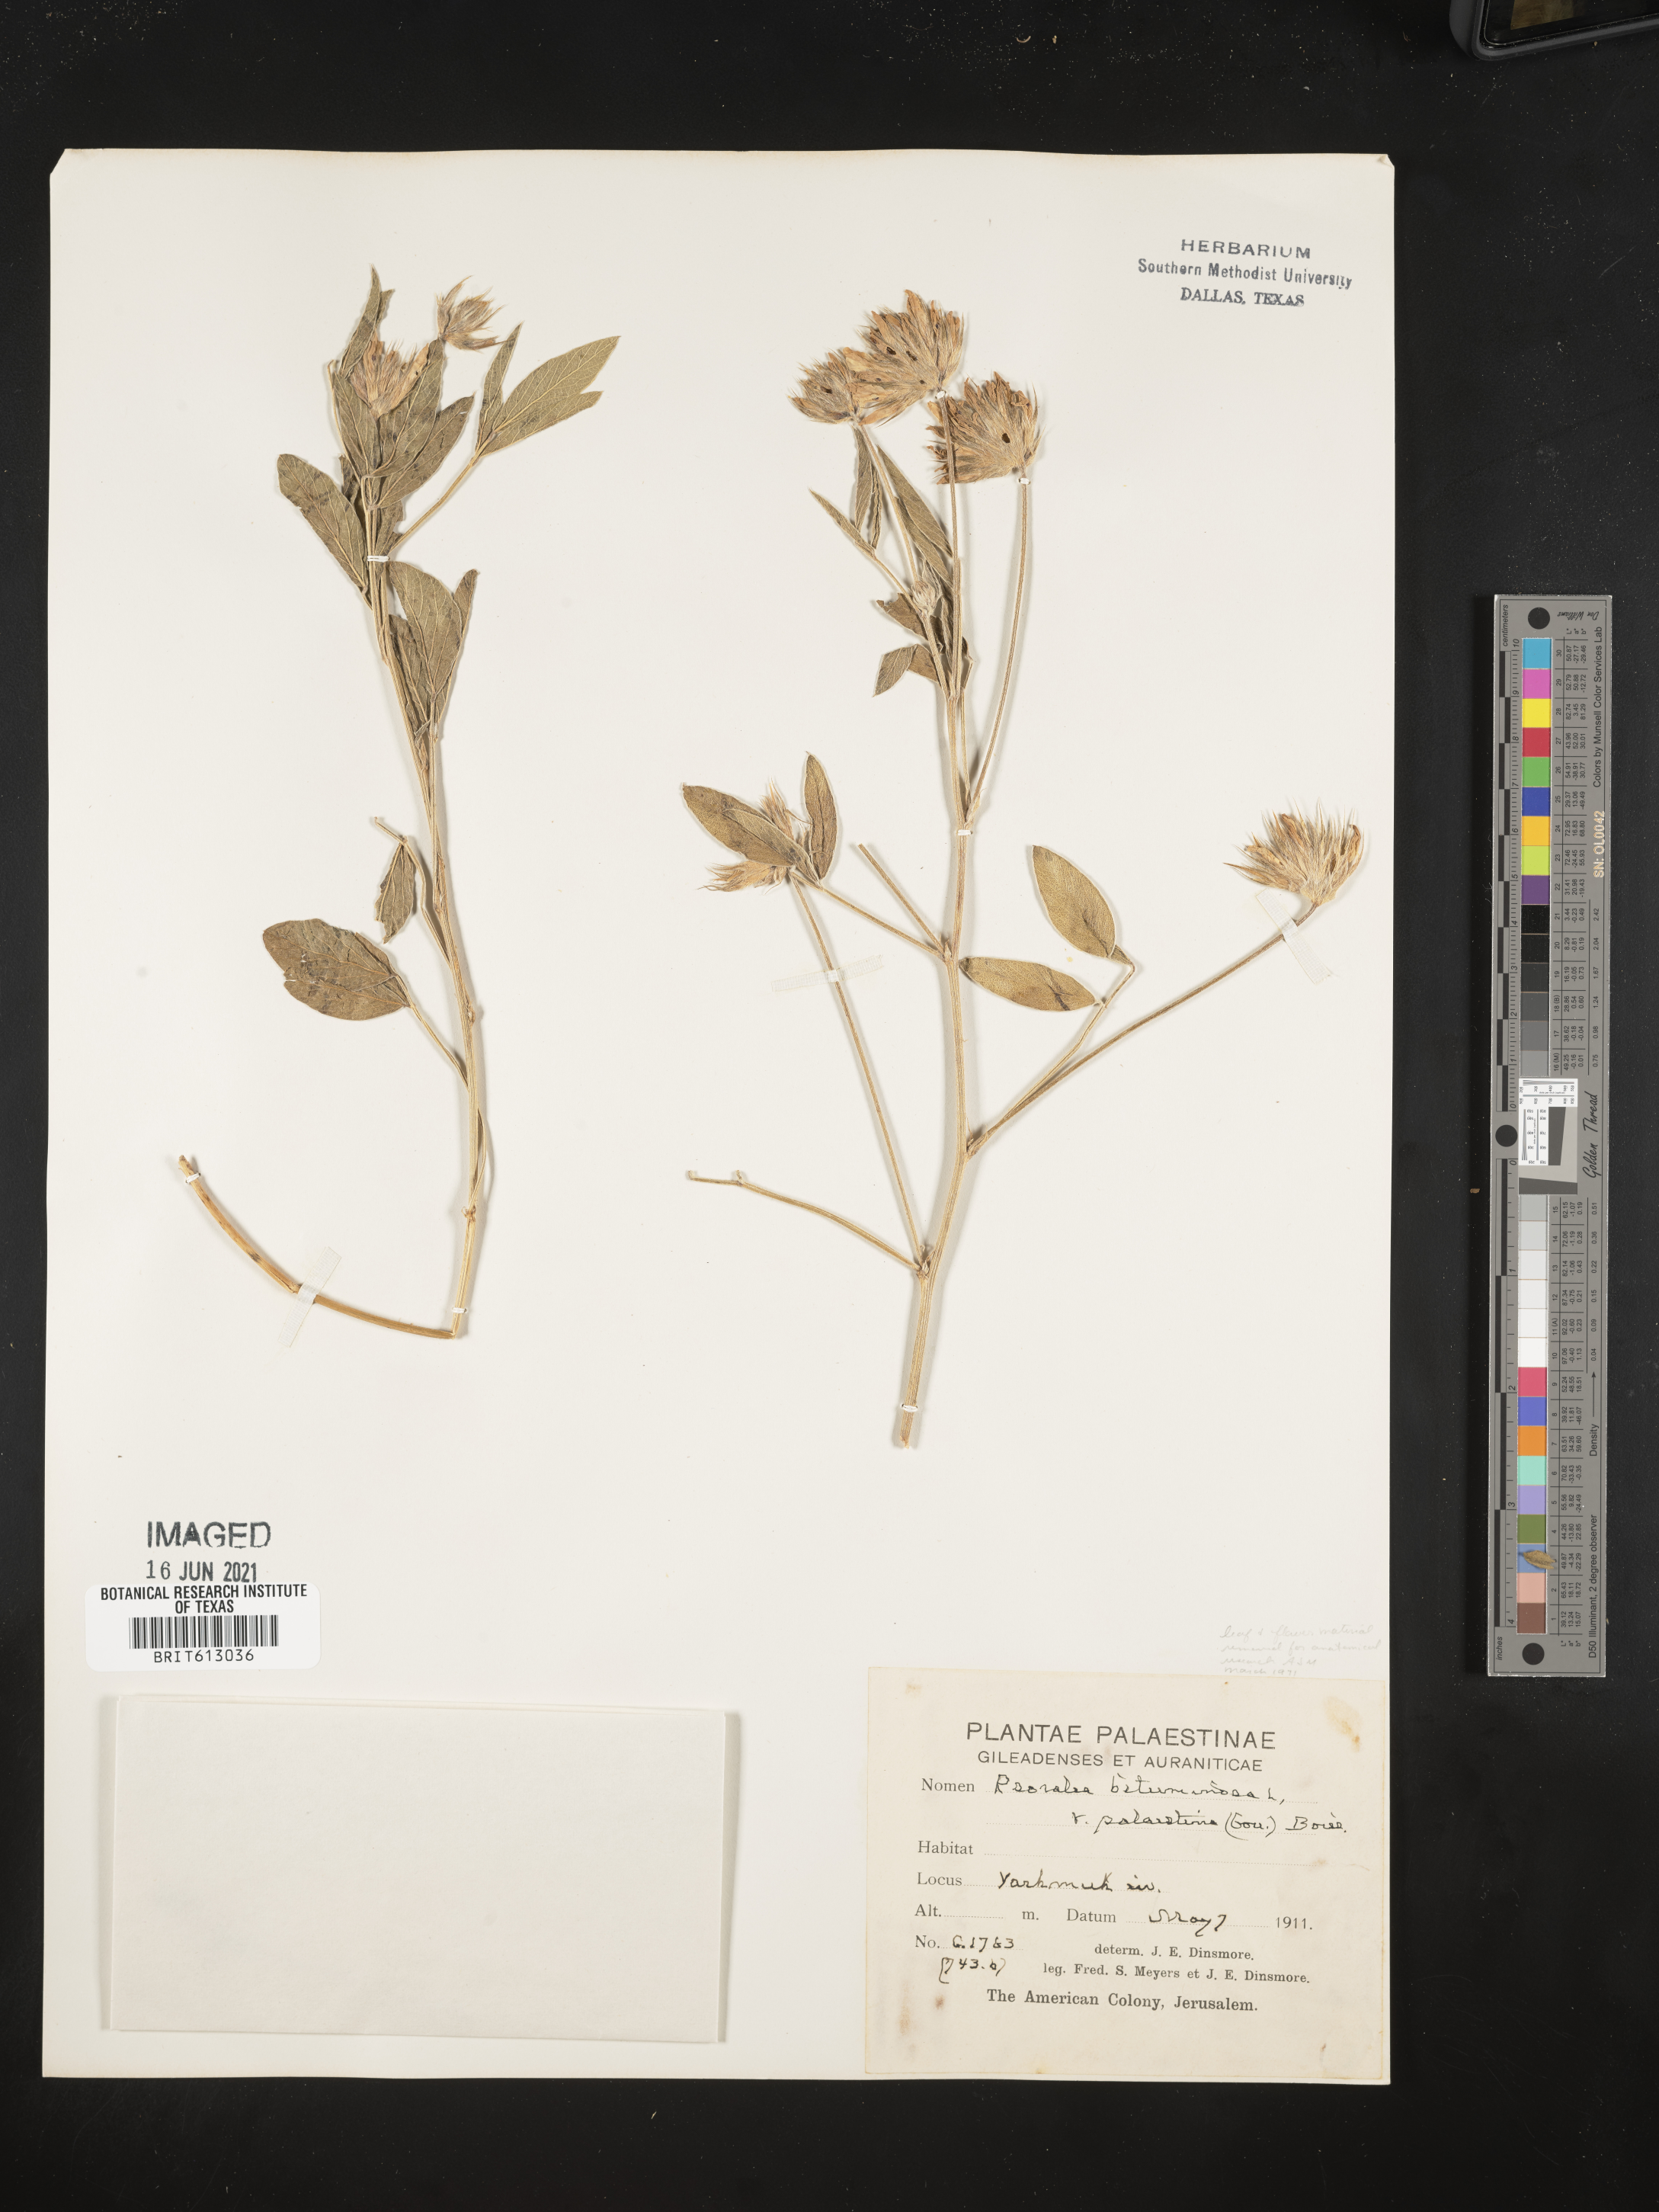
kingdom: Plantae
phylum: Tracheophyta
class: Magnoliopsida
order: Fabales
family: Fabaceae
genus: Bituminaria
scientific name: Bituminaria bituminosa
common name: Arabian pea
